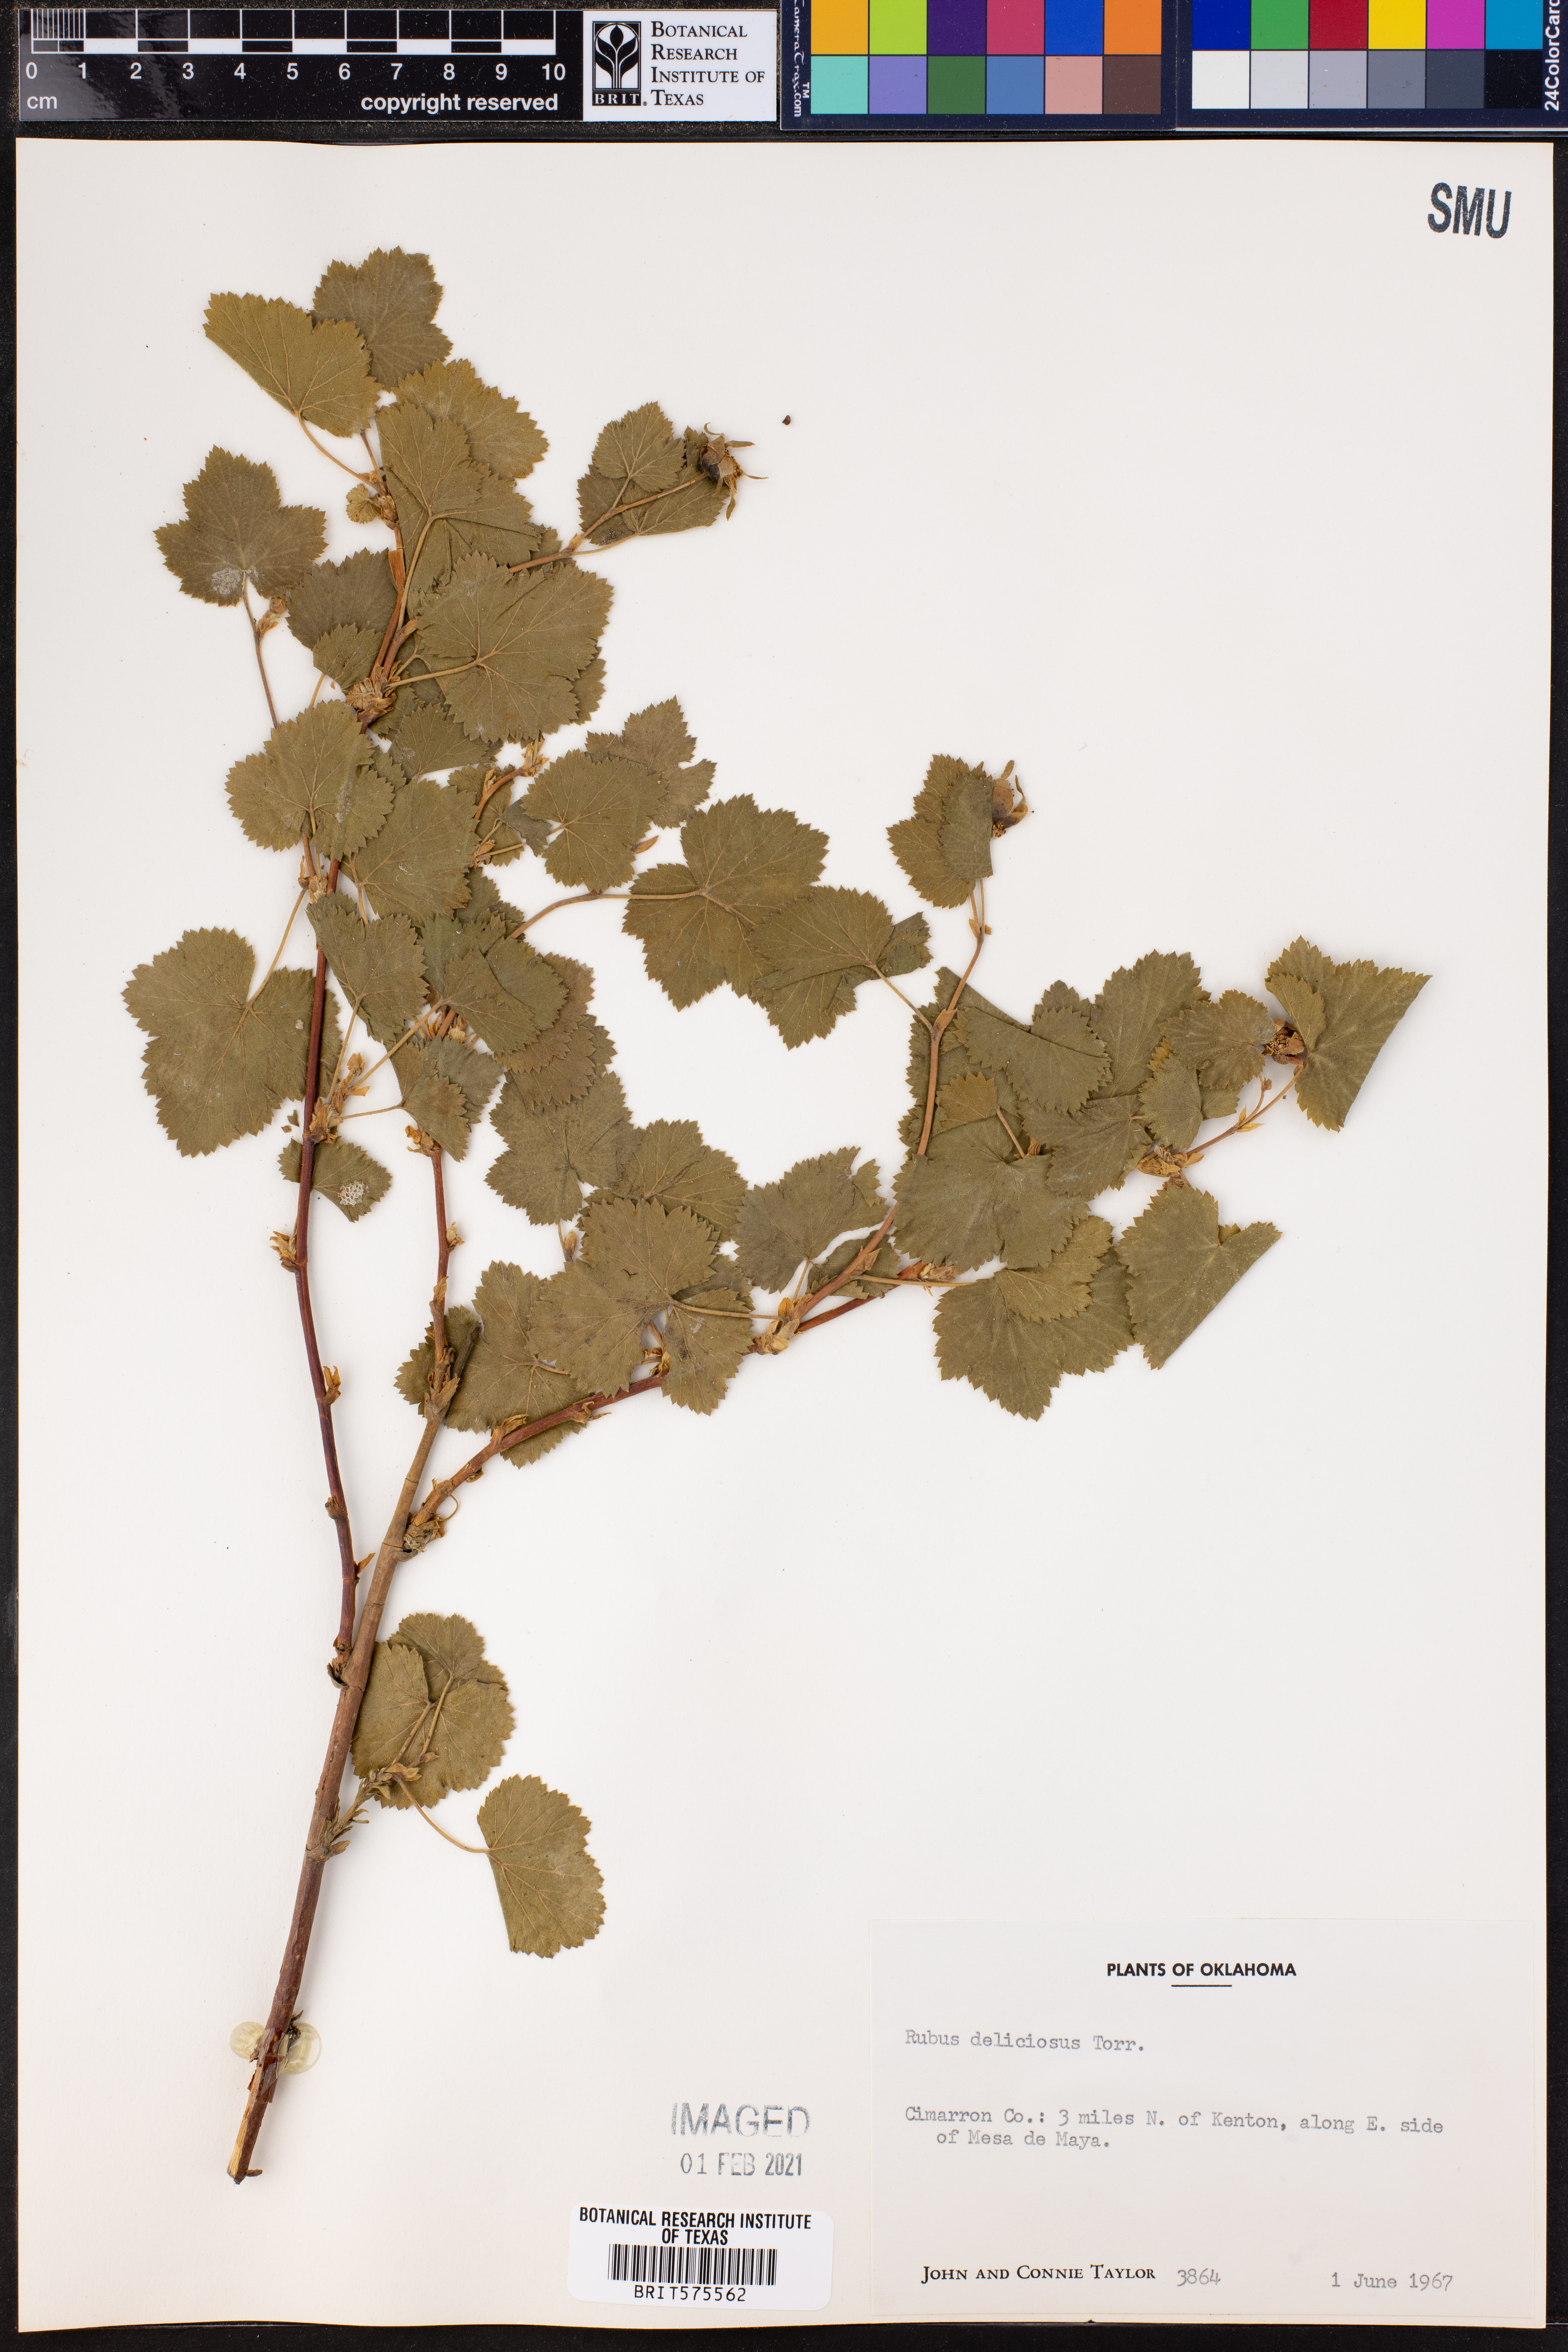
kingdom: Plantae
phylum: Tracheophyta
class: Magnoliopsida
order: Rosales
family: Rosaceae
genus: Rubus
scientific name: Rubus deliciosus
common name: Rocky mountain raspberry
